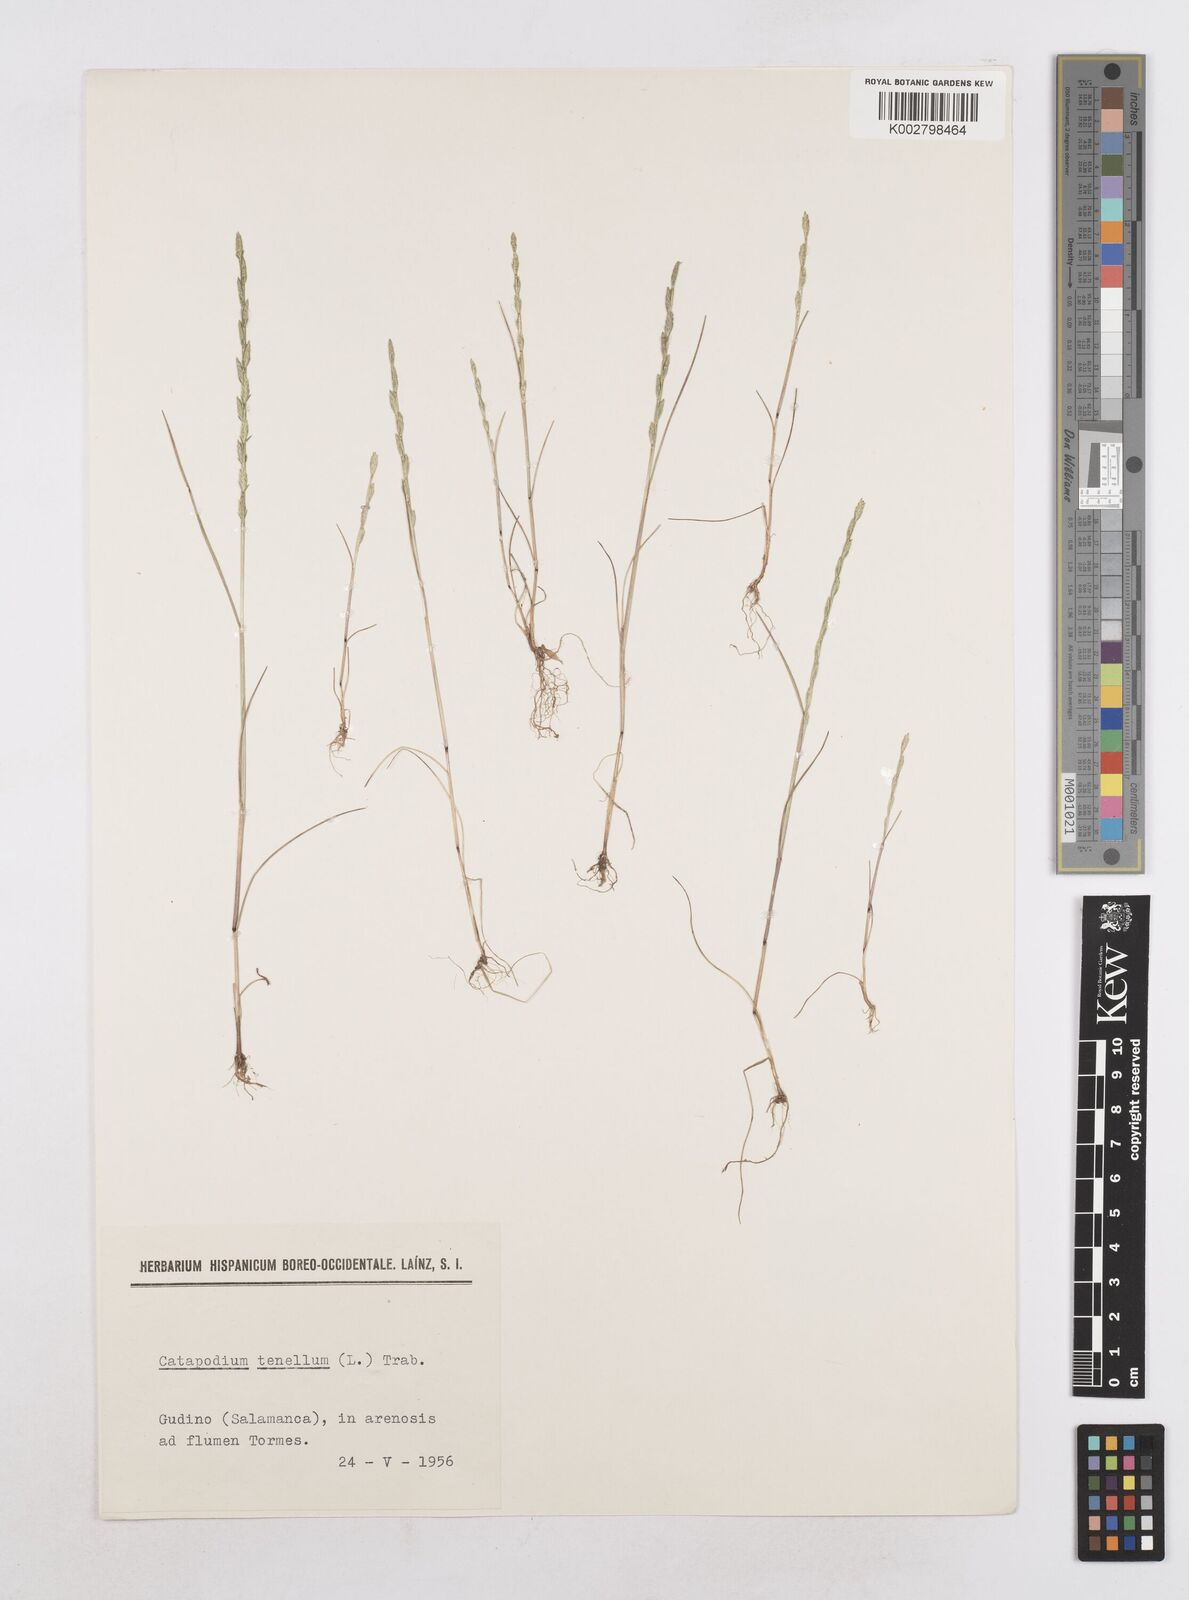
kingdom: Plantae
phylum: Tracheophyta
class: Liliopsida
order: Poales
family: Poaceae
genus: Festuca
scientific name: Festuca lachenalii
